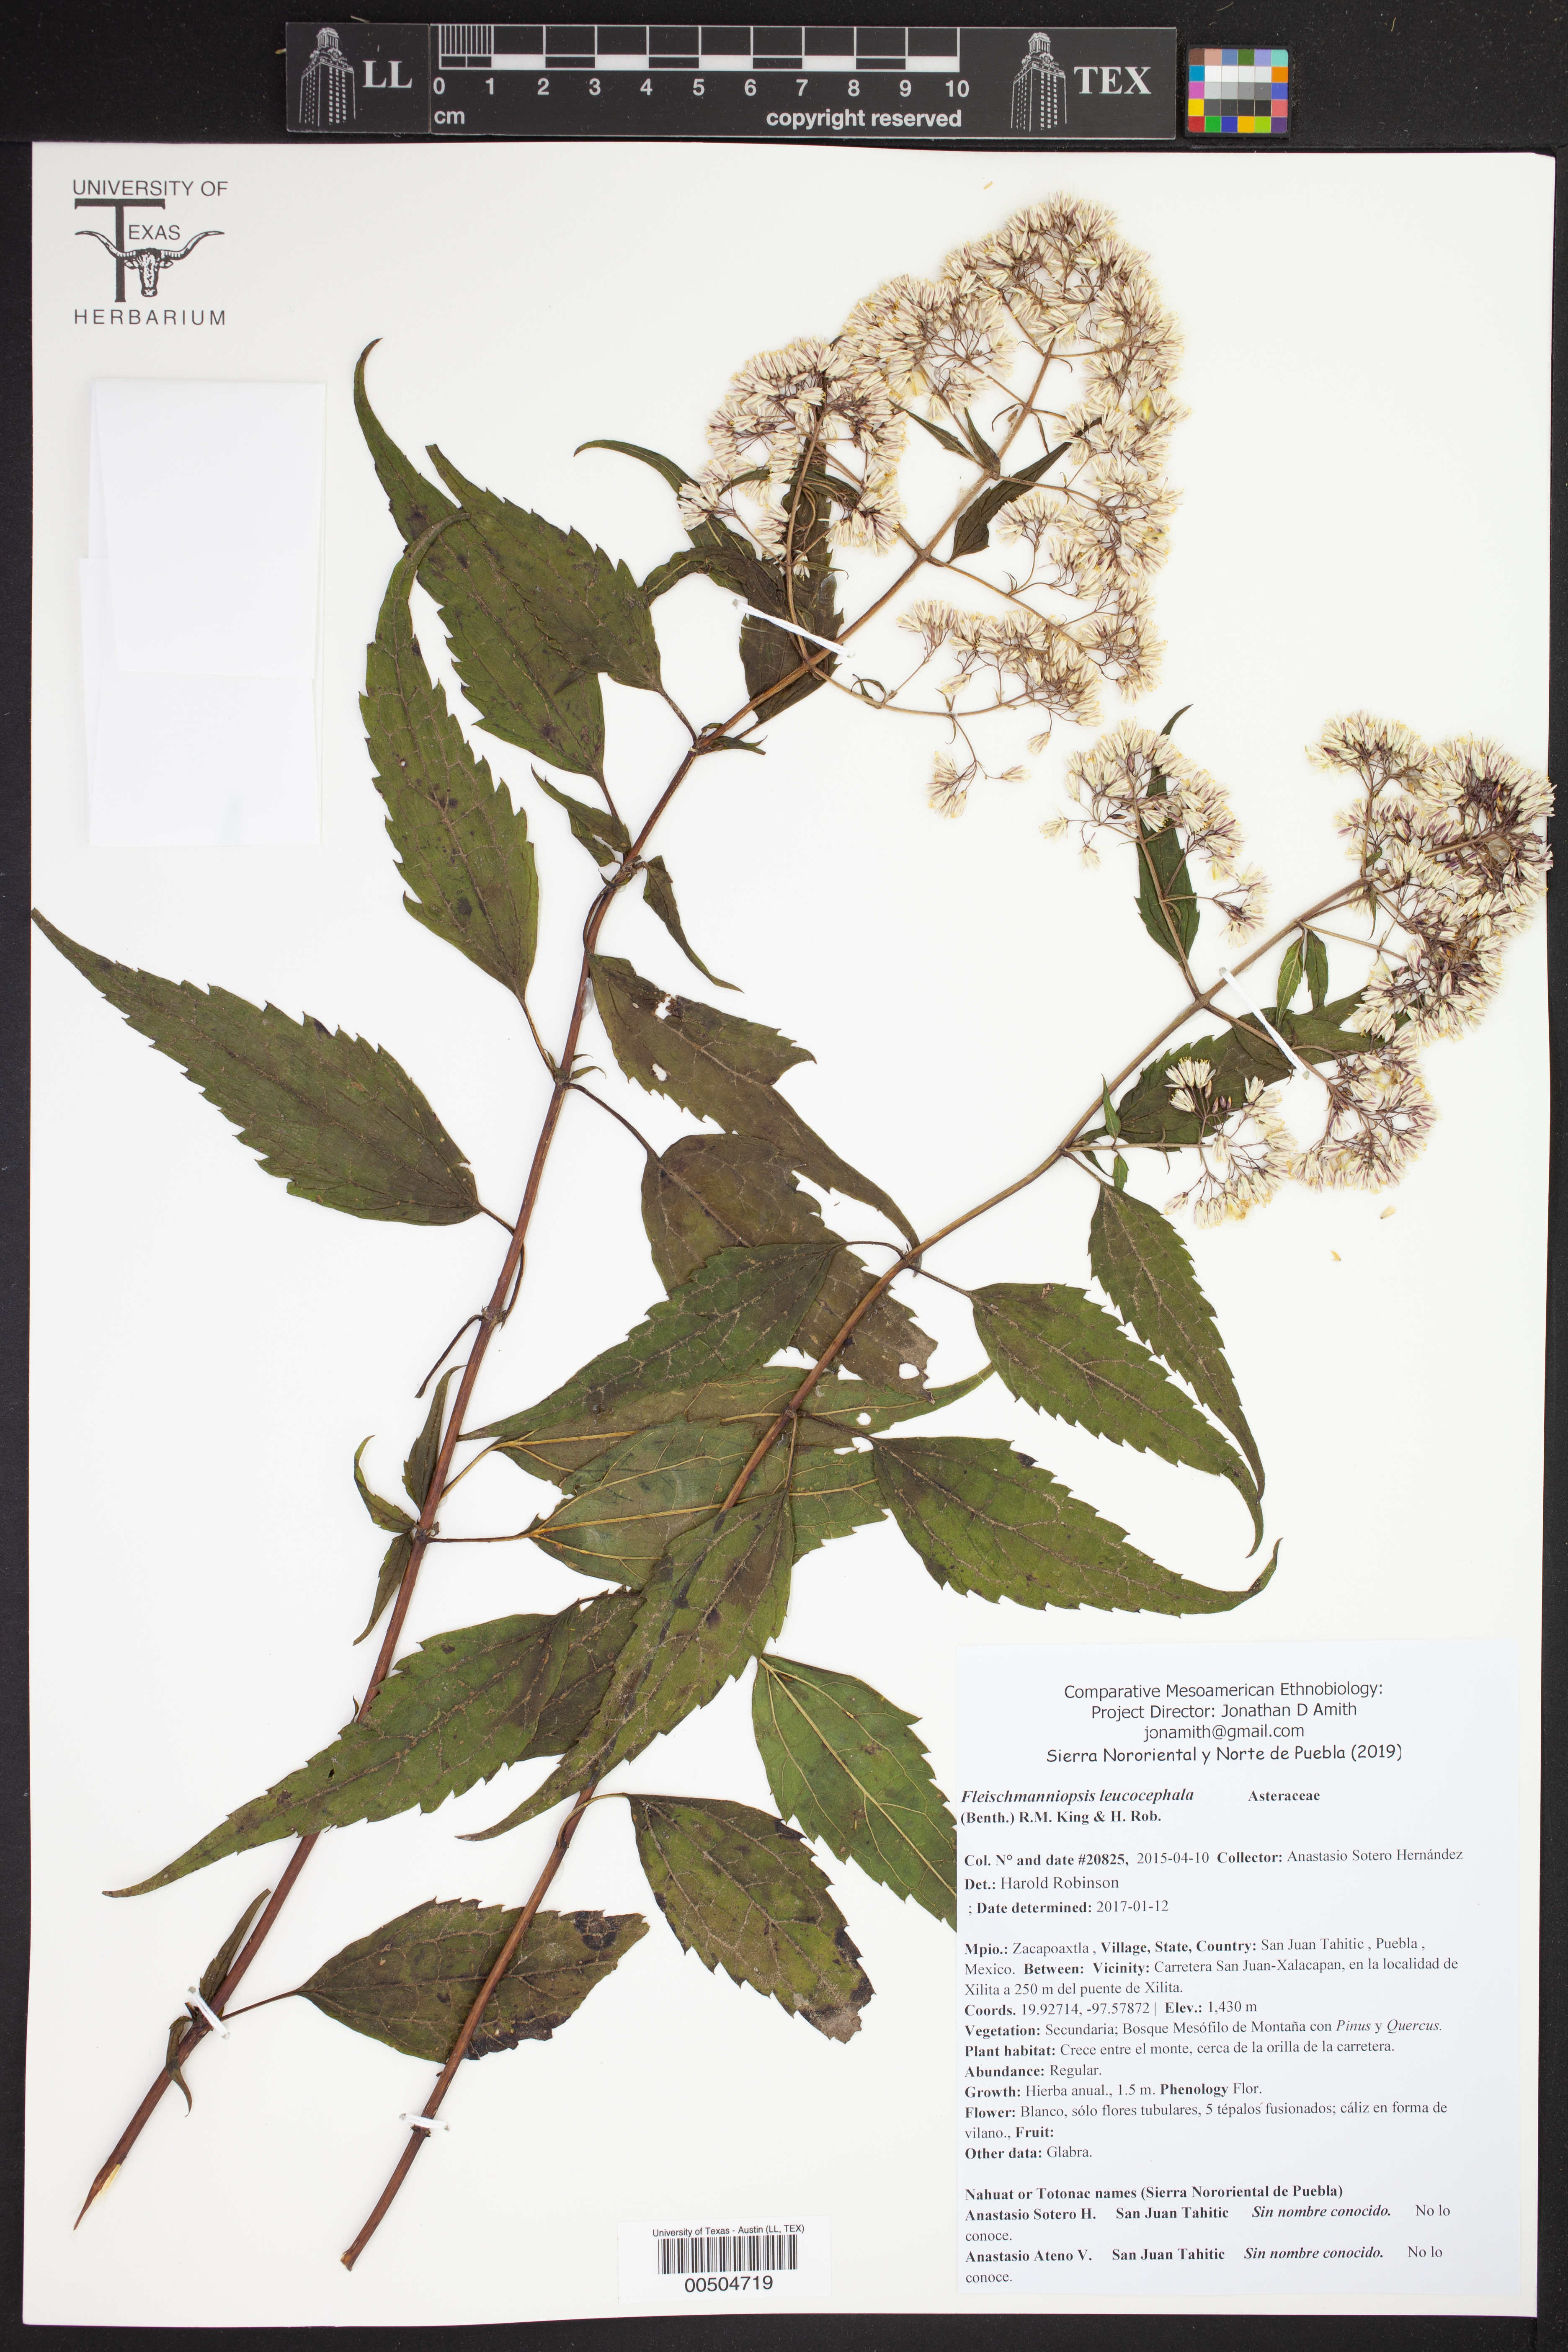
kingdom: Plantae
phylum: Tracheophyta
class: Magnoliopsida
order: Asterales
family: Asteraceae
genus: Fleischmanniopsis
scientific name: Fleischmanniopsis leucocephala
